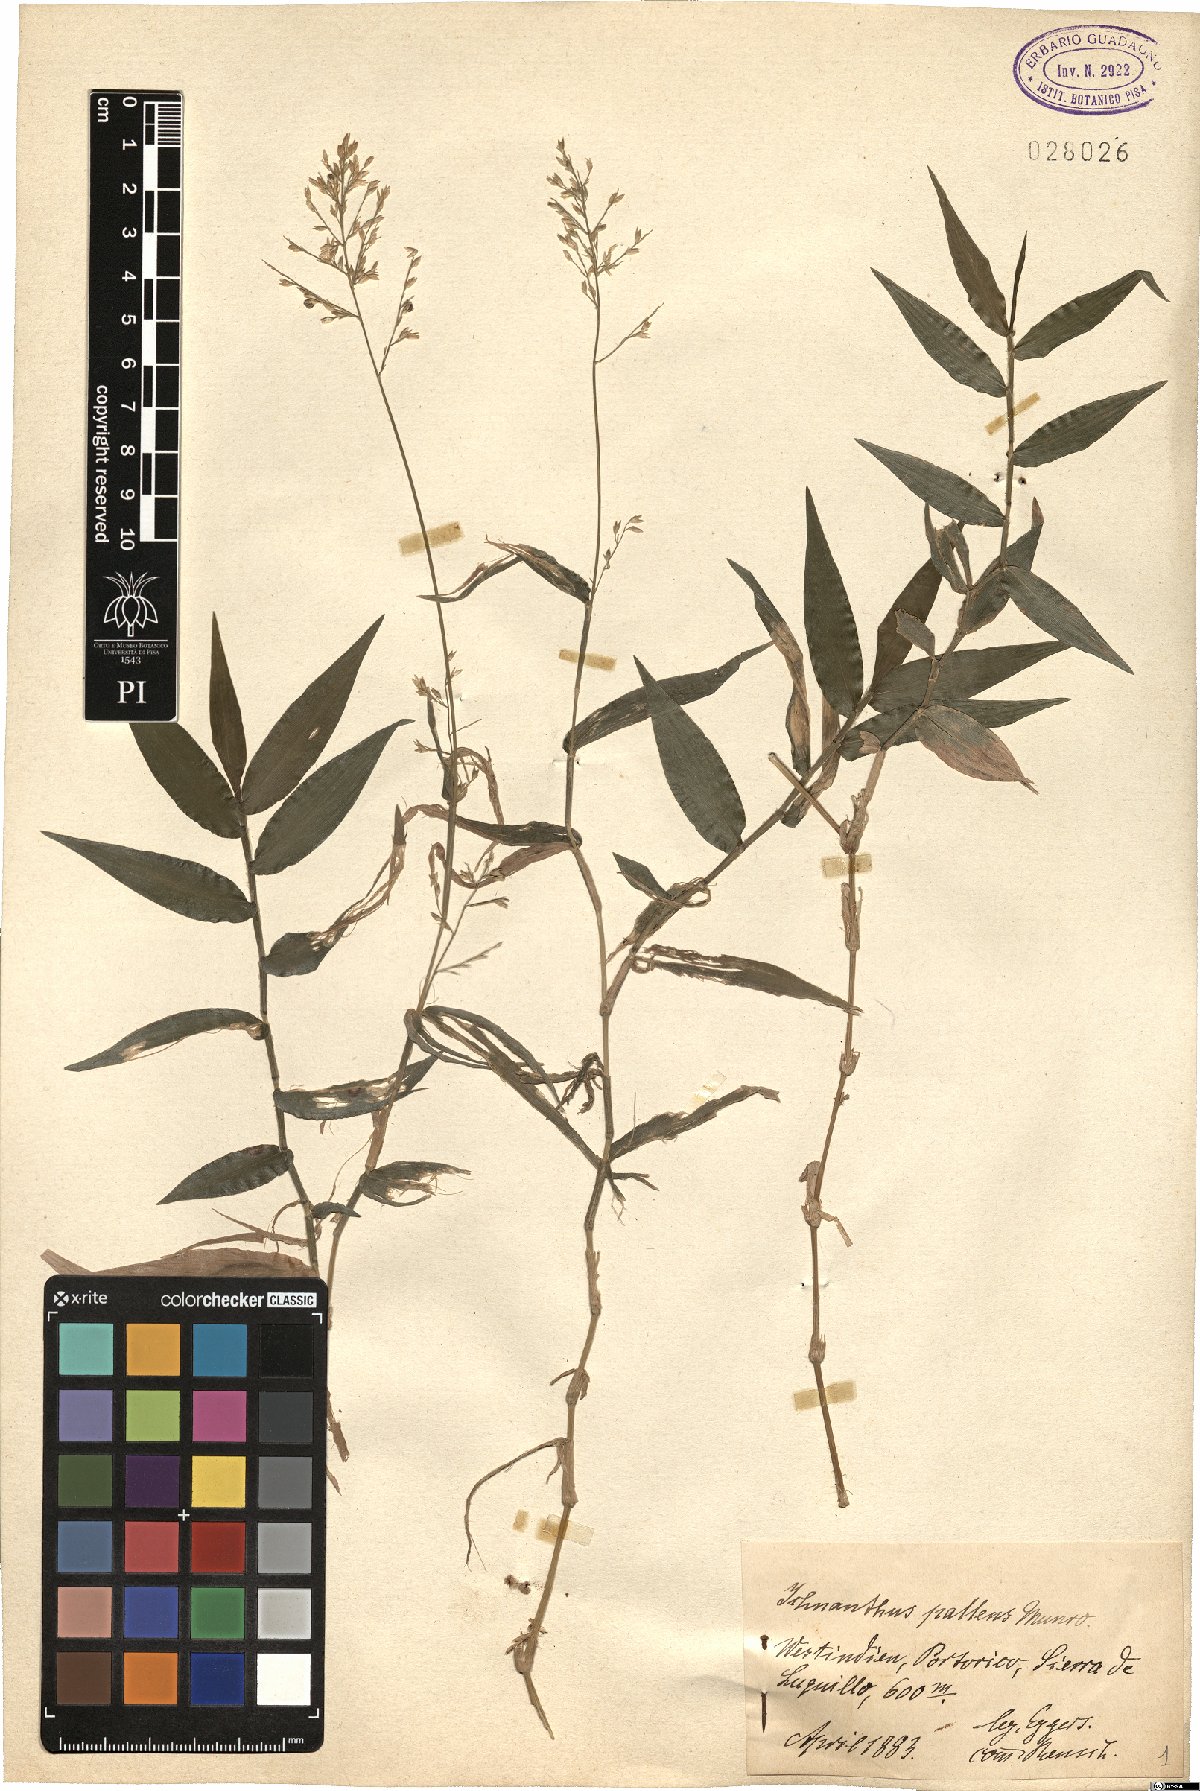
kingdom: Plantae
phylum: Tracheophyta
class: Liliopsida
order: Poales
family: Poaceae
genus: Ichnanthus
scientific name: Ichnanthus pallens
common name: Water grass
